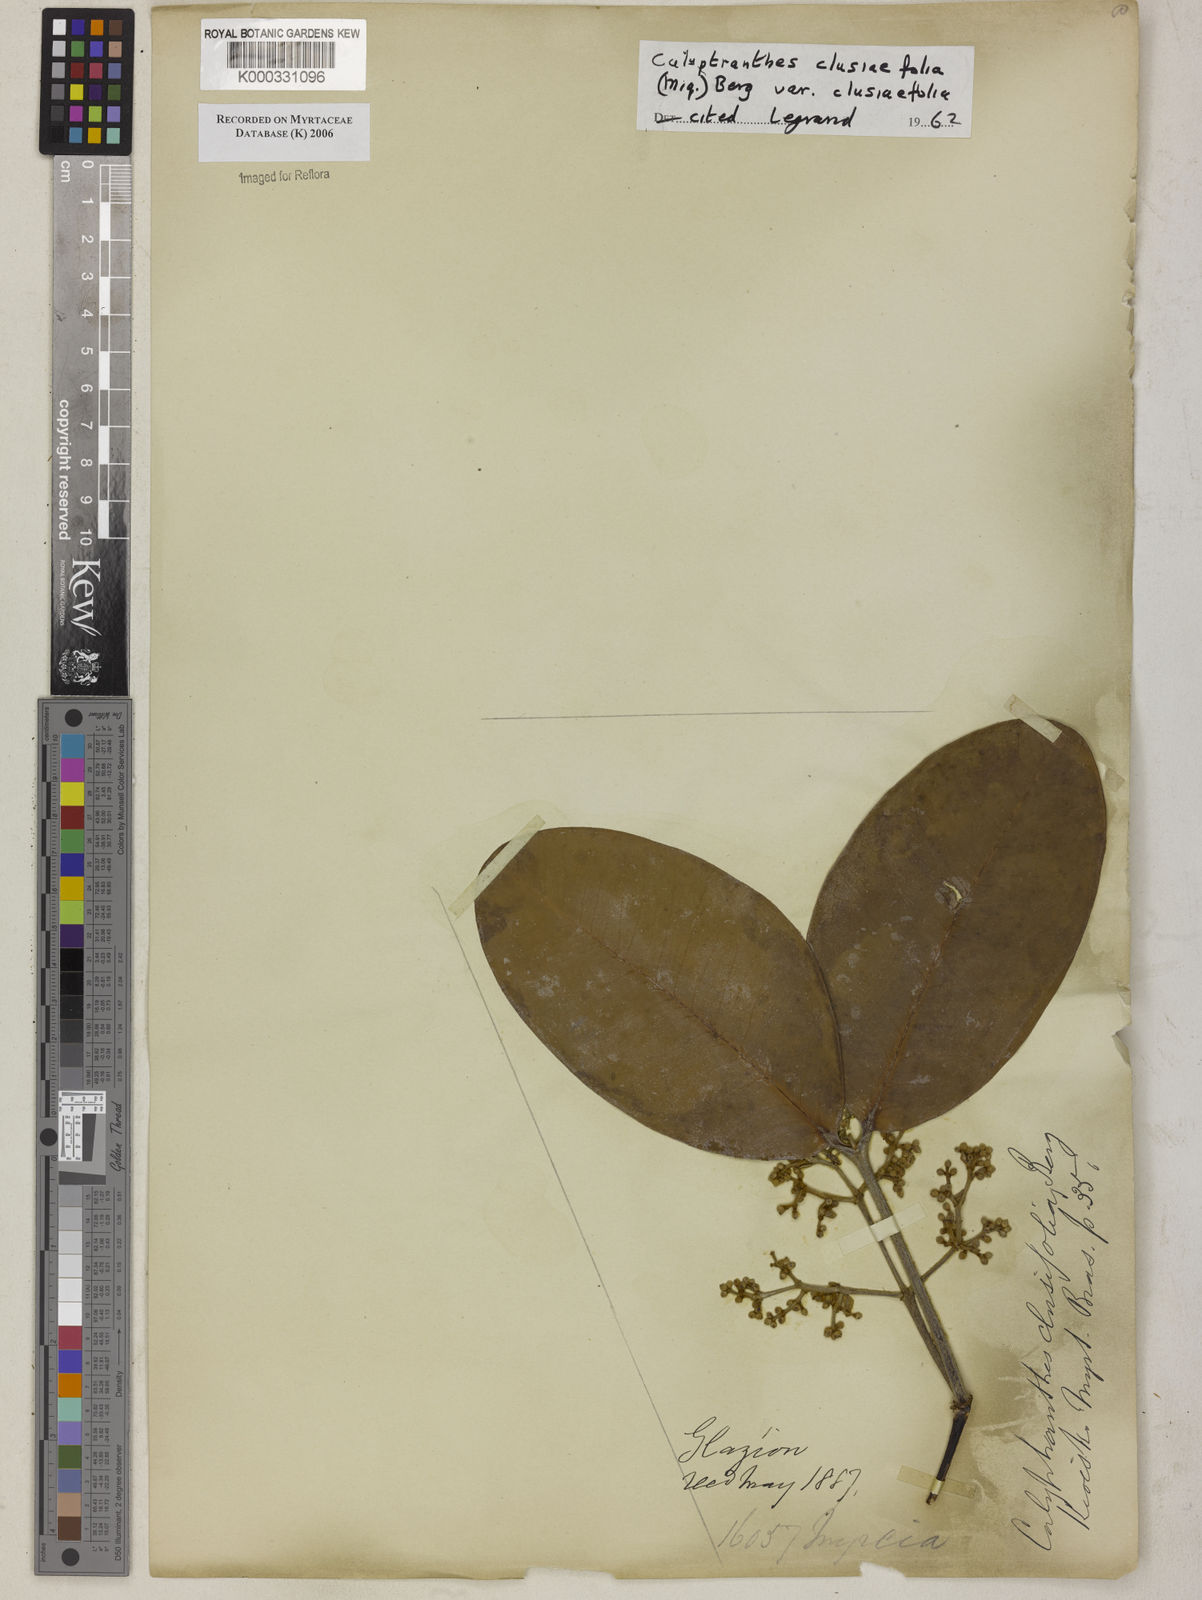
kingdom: Plantae
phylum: Tracheophyta
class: Magnoliopsida
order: Myrtales
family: Myrtaceae
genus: Calyptranthes
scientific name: Calyptranthes
